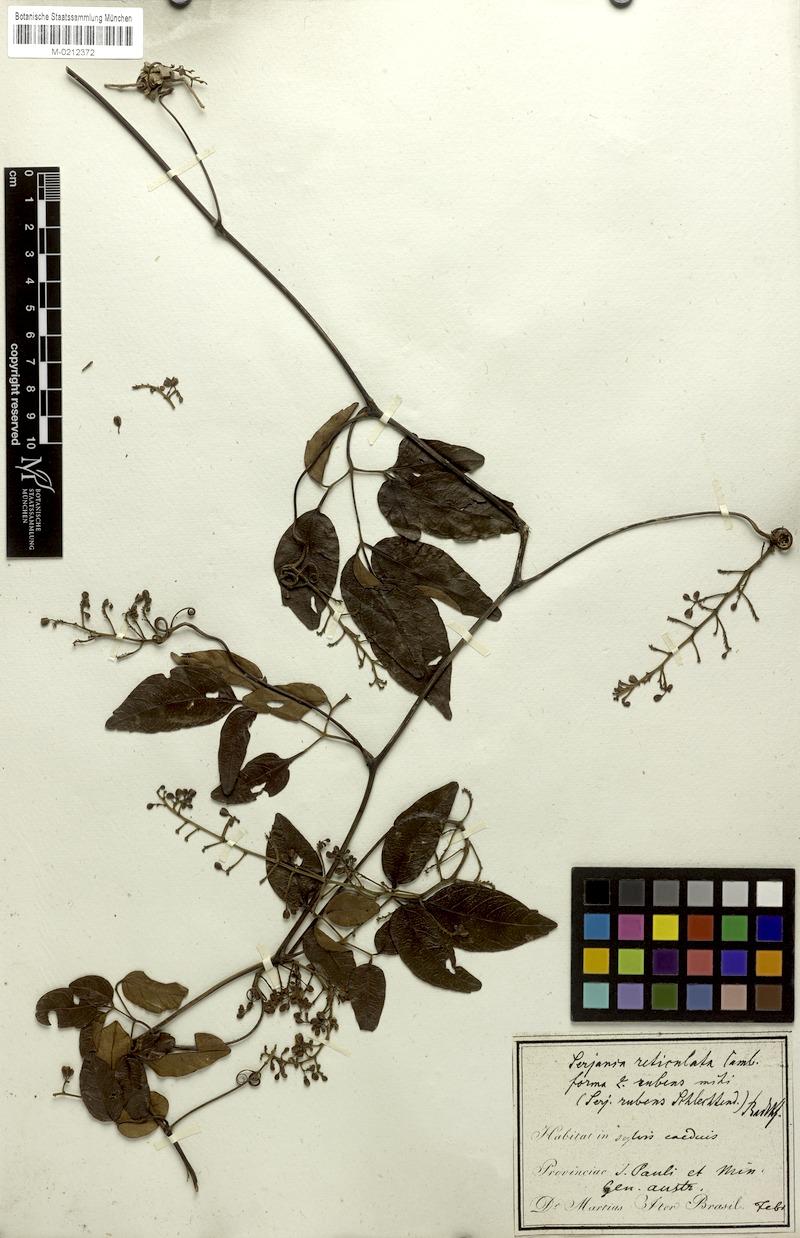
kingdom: Plantae
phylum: Tracheophyta
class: Magnoliopsida
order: Sapindales
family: Sapindaceae
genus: Serjania
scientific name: Serjania reticulata
